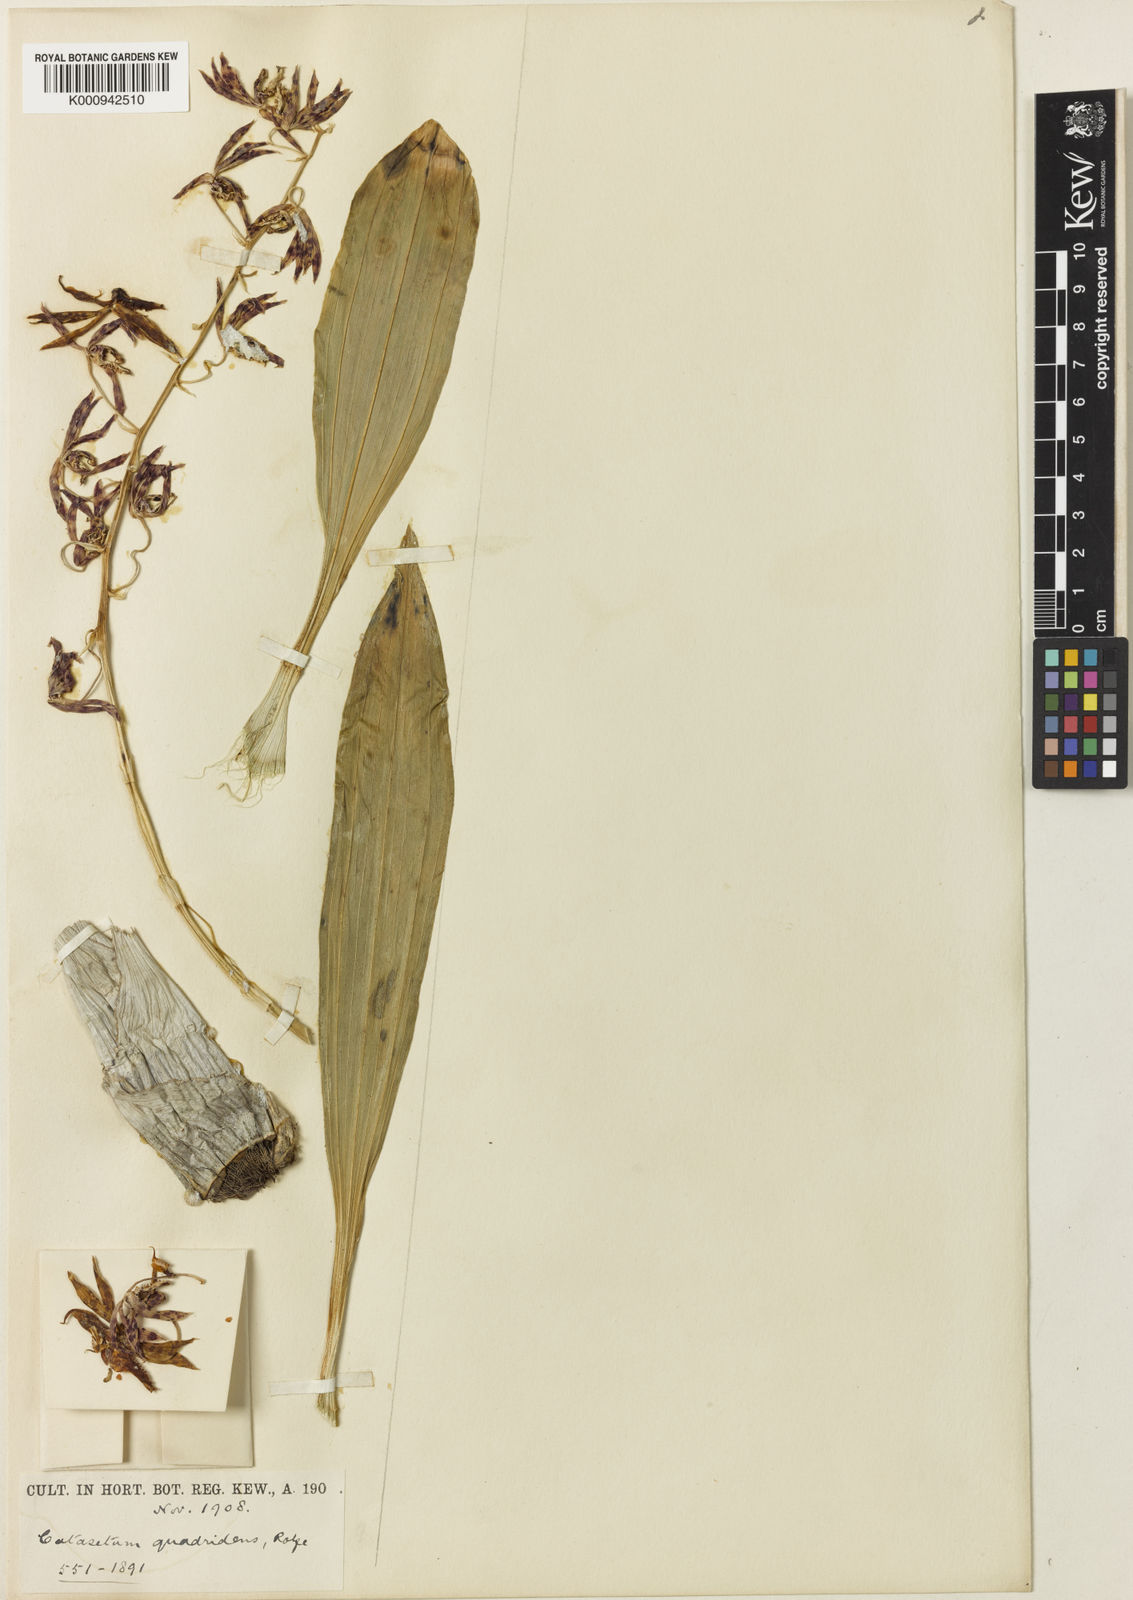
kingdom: Plantae
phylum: Tracheophyta
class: Liliopsida
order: Asparagales
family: Orchidaceae
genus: Catasetum
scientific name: Catasetum quadridens
